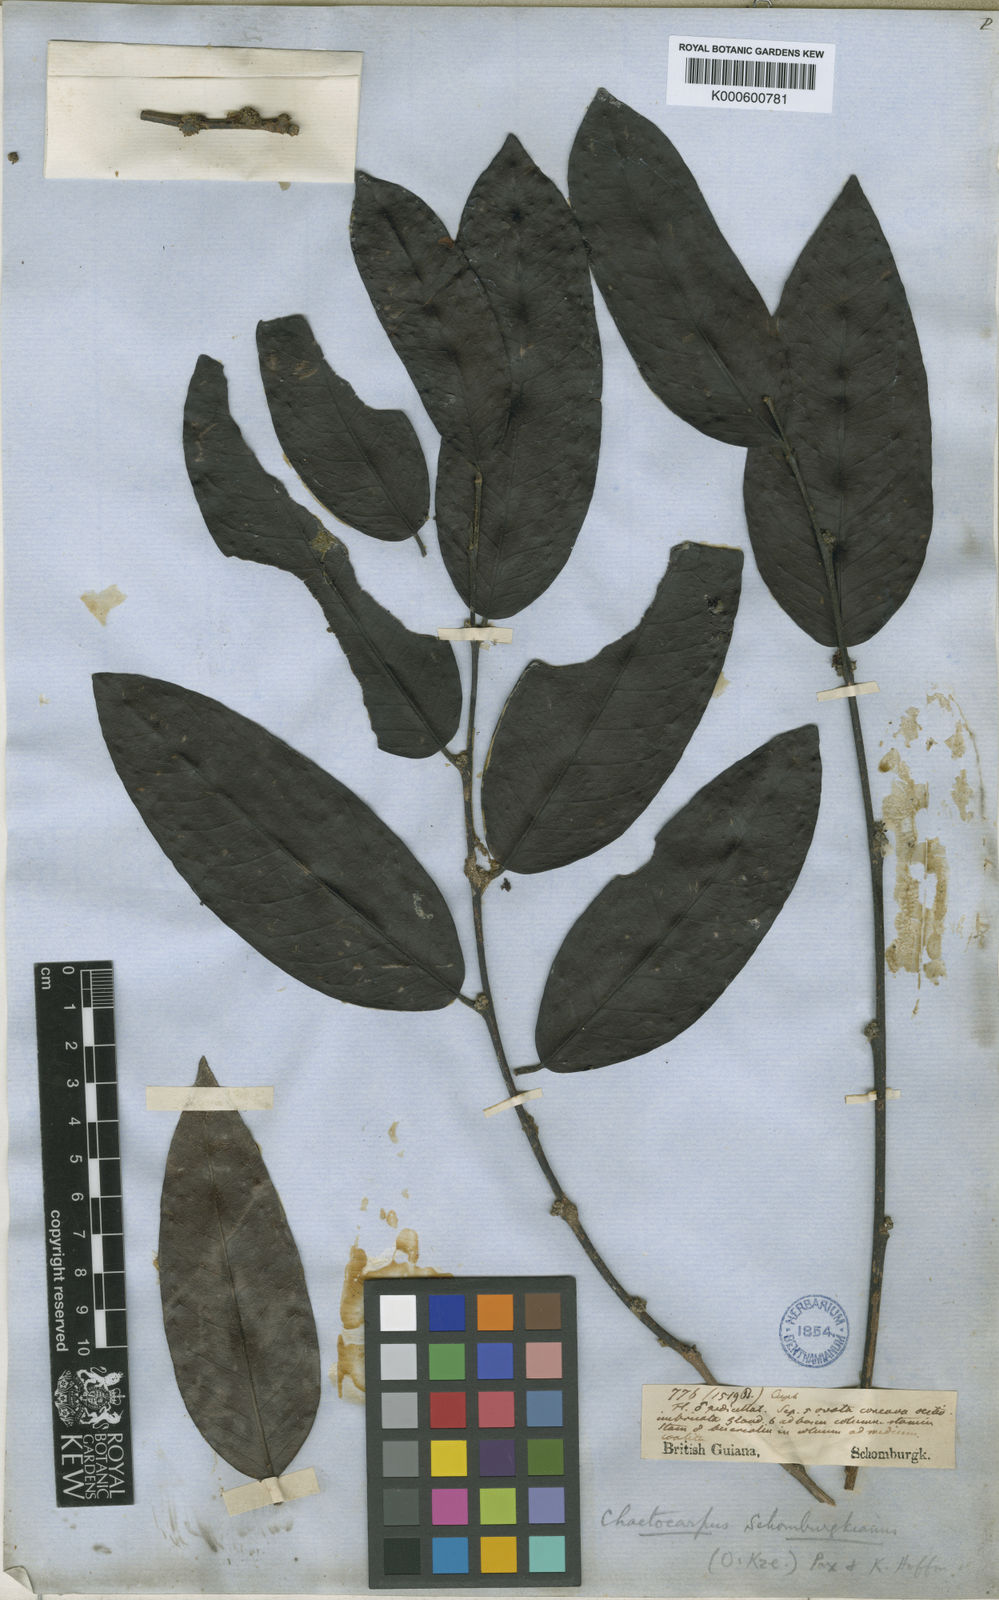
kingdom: Plantae
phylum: Tracheophyta
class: Magnoliopsida
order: Malpighiales
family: Peraceae
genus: Chaetocarpus
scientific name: Chaetocarpus schomburgkianus
